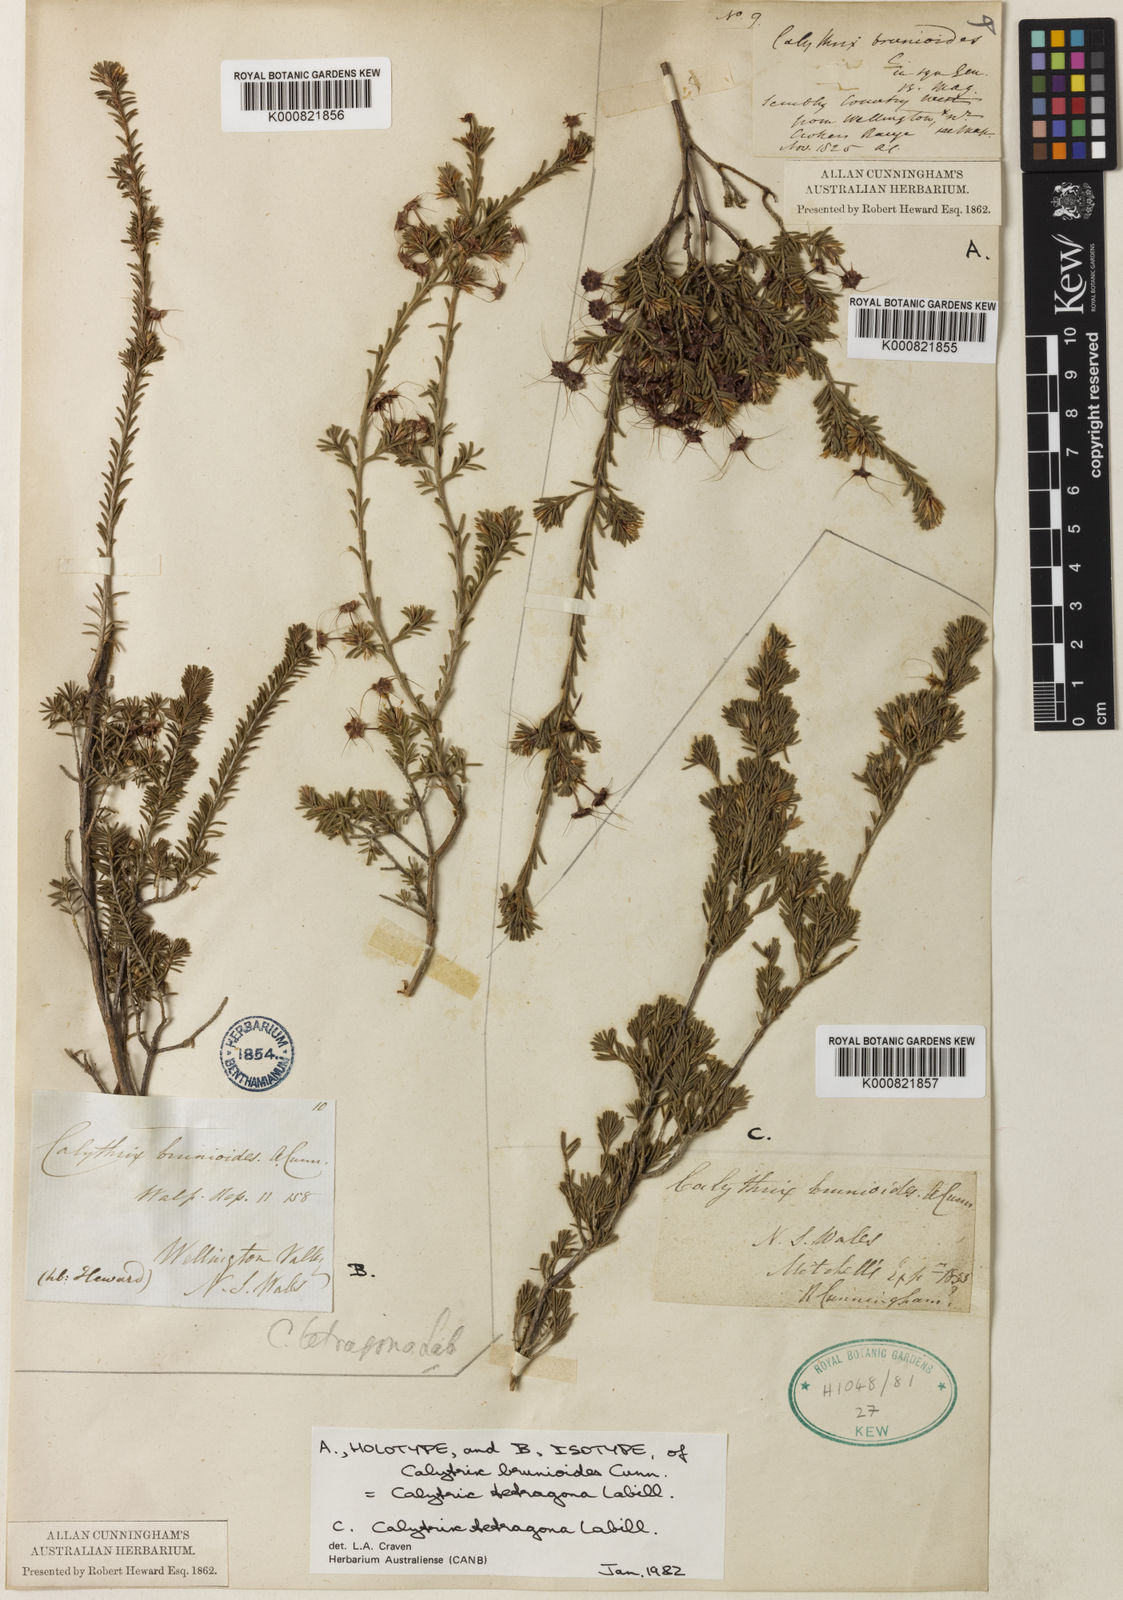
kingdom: Plantae
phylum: Tracheophyta
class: Magnoliopsida
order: Myrtales
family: Myrtaceae
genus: Calytrix
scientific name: Calytrix tetragona
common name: Common fringe myrtle
